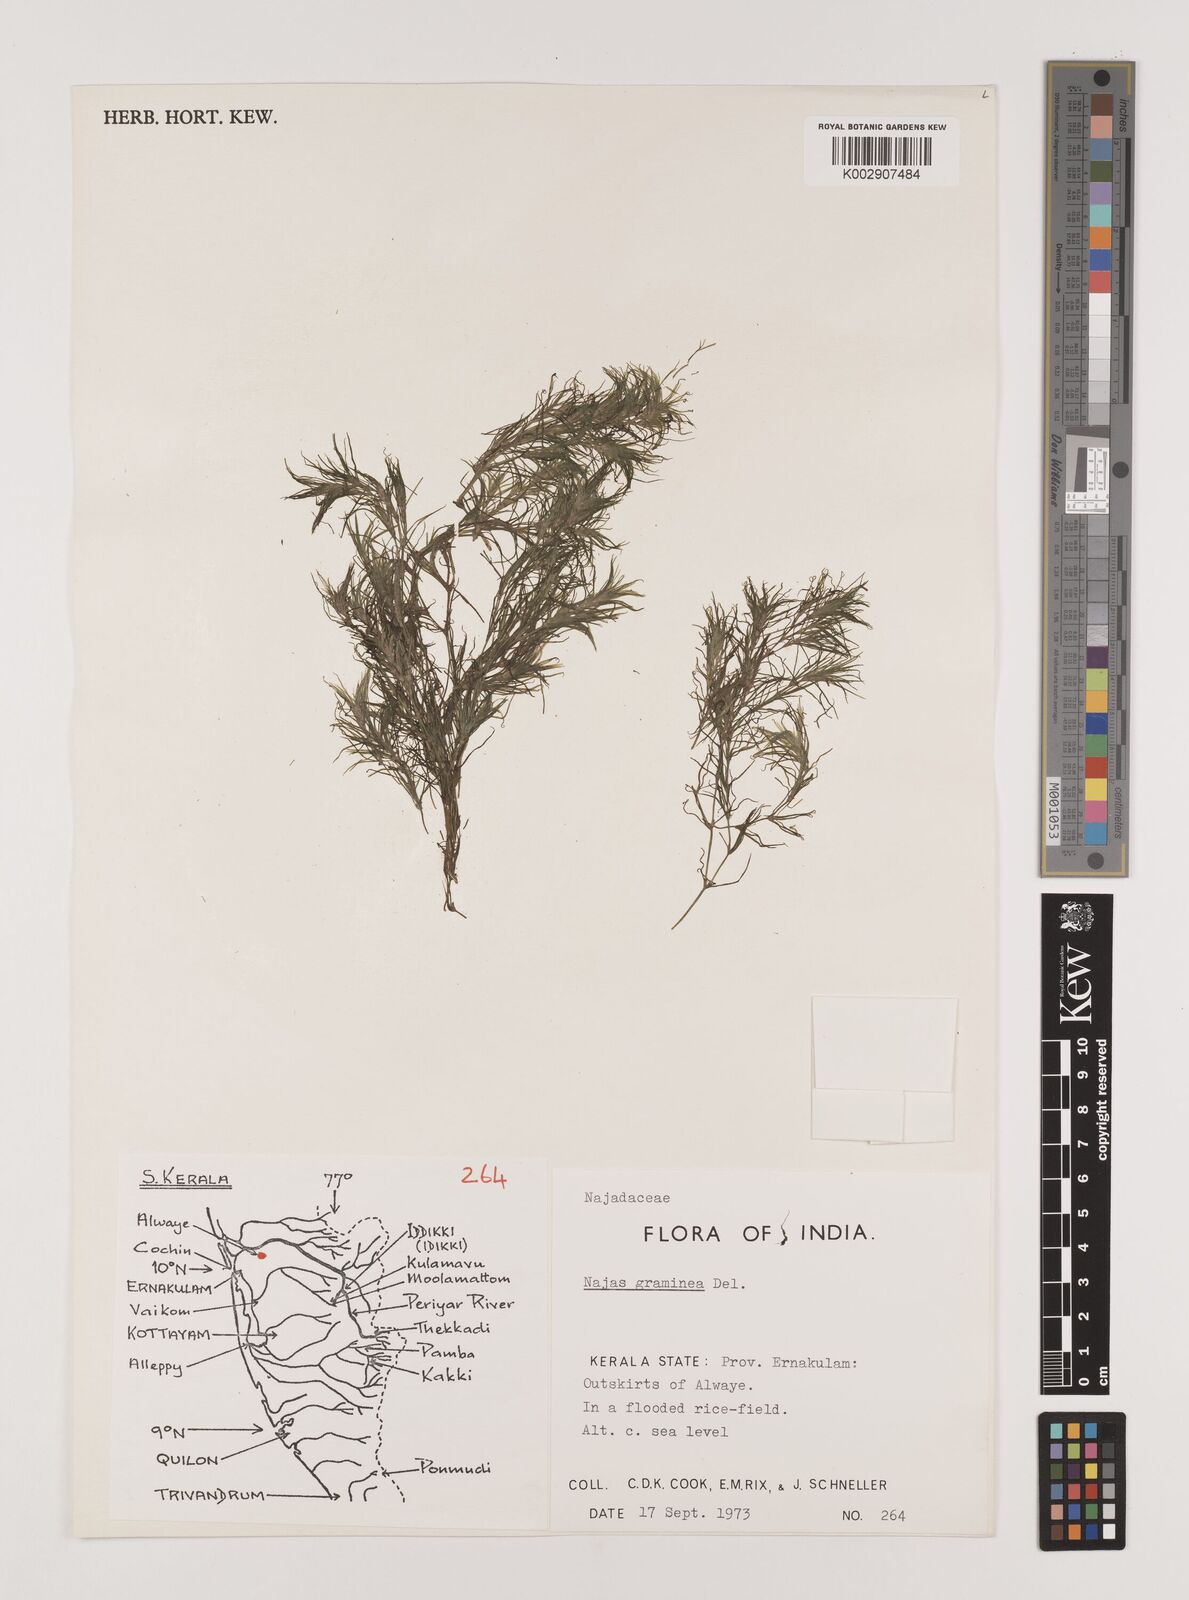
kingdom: Plantae
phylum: Tracheophyta
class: Liliopsida
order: Alismatales
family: Hydrocharitaceae
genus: Najas
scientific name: Najas graminea
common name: Ricefield waternymph
